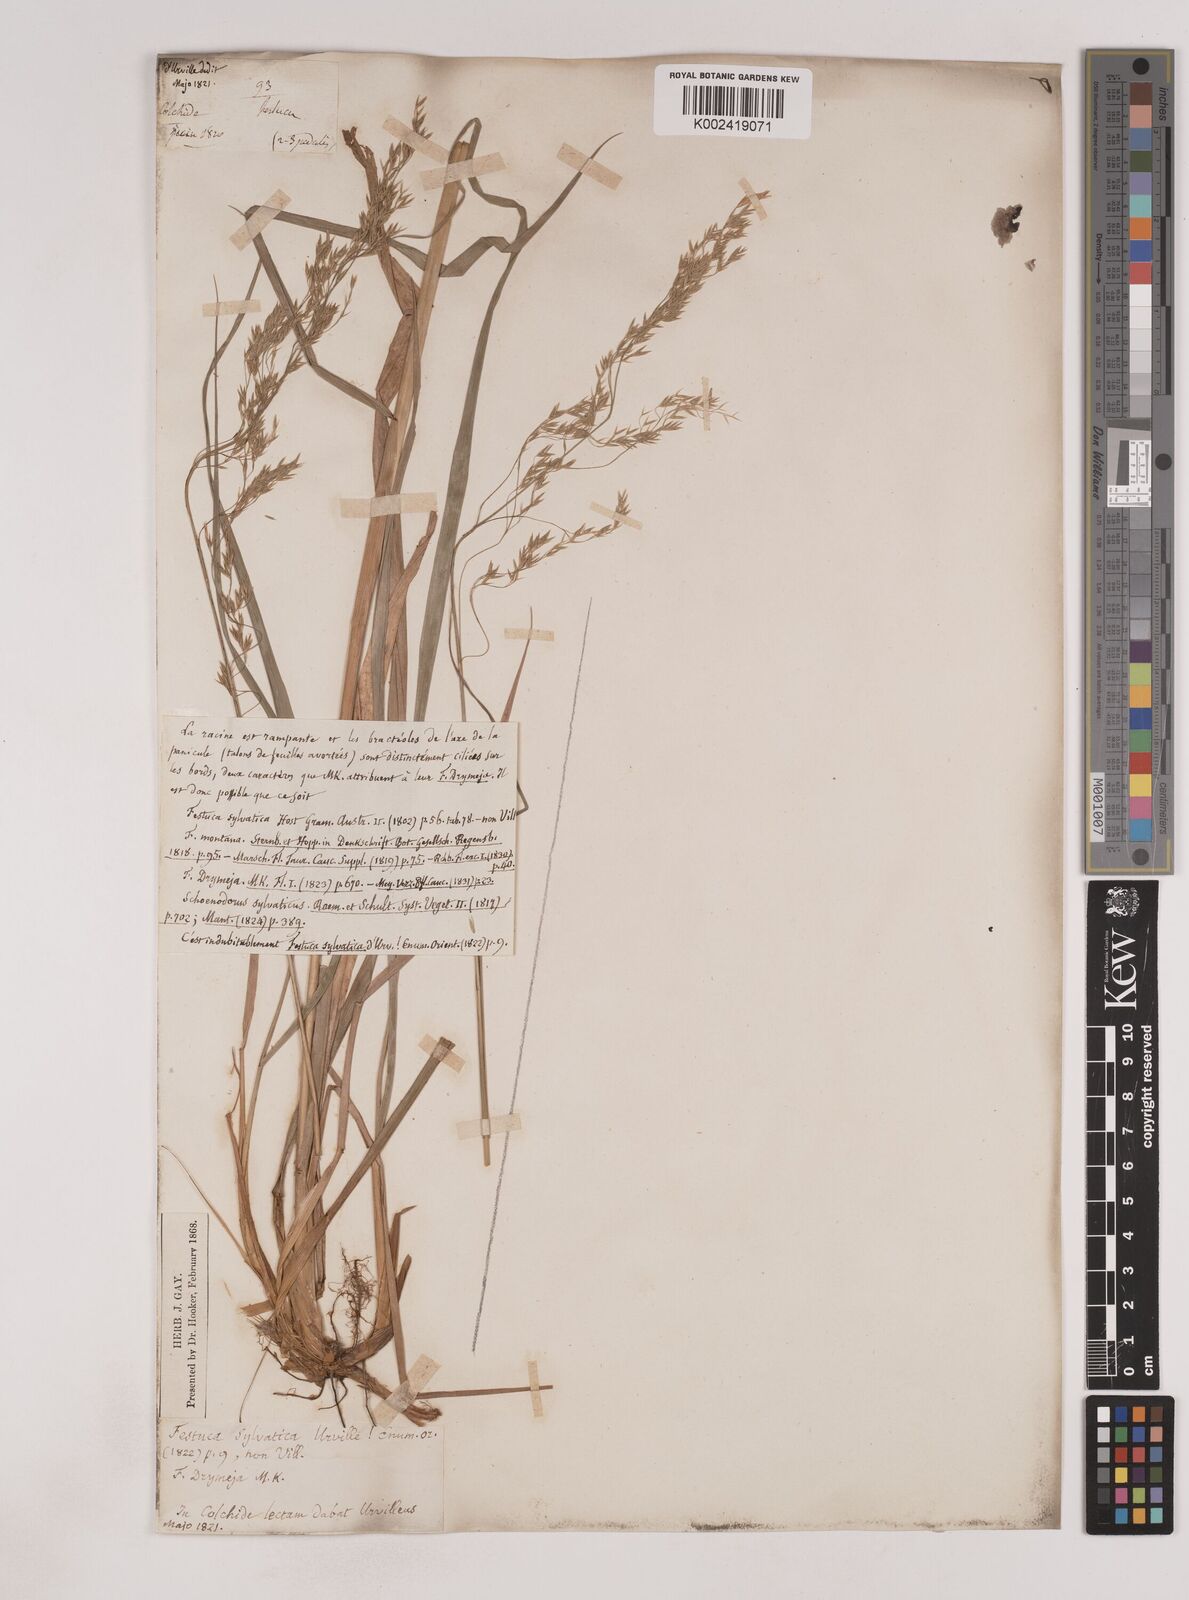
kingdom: Plantae
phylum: Tracheophyta
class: Liliopsida
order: Poales
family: Poaceae
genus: Festuca
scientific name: Festuca drymeja
